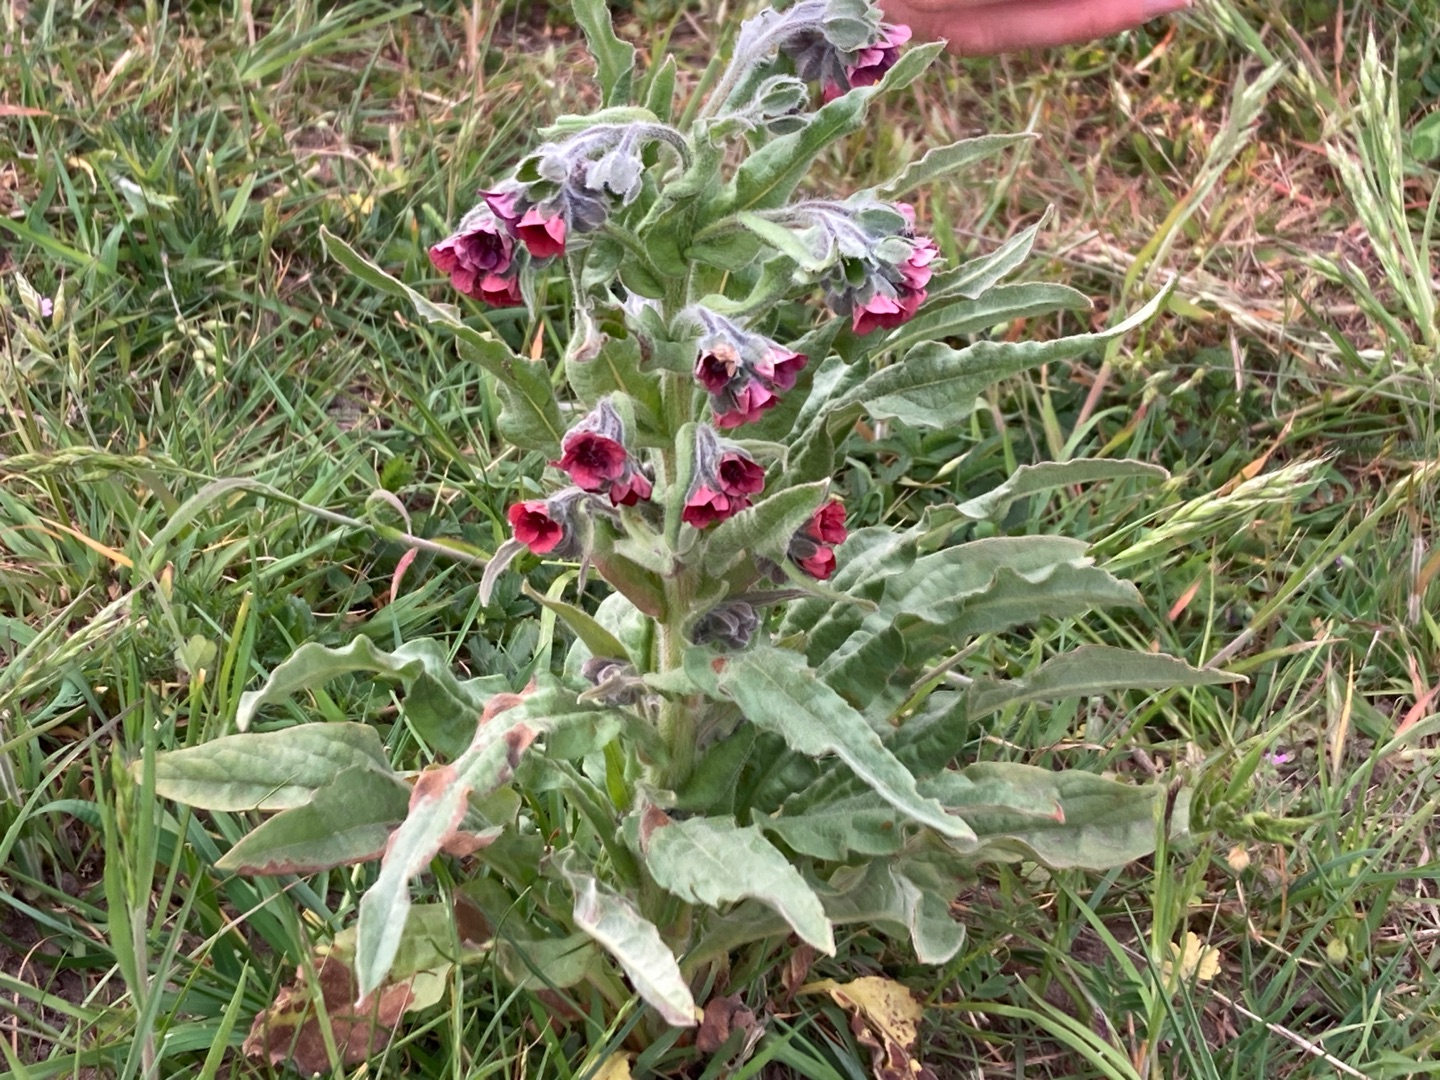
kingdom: Plantae
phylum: Tracheophyta
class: Magnoliopsida
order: Boraginales
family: Boraginaceae
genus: Cynoglossum
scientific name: Cynoglossum officinale
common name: Hundetunge
